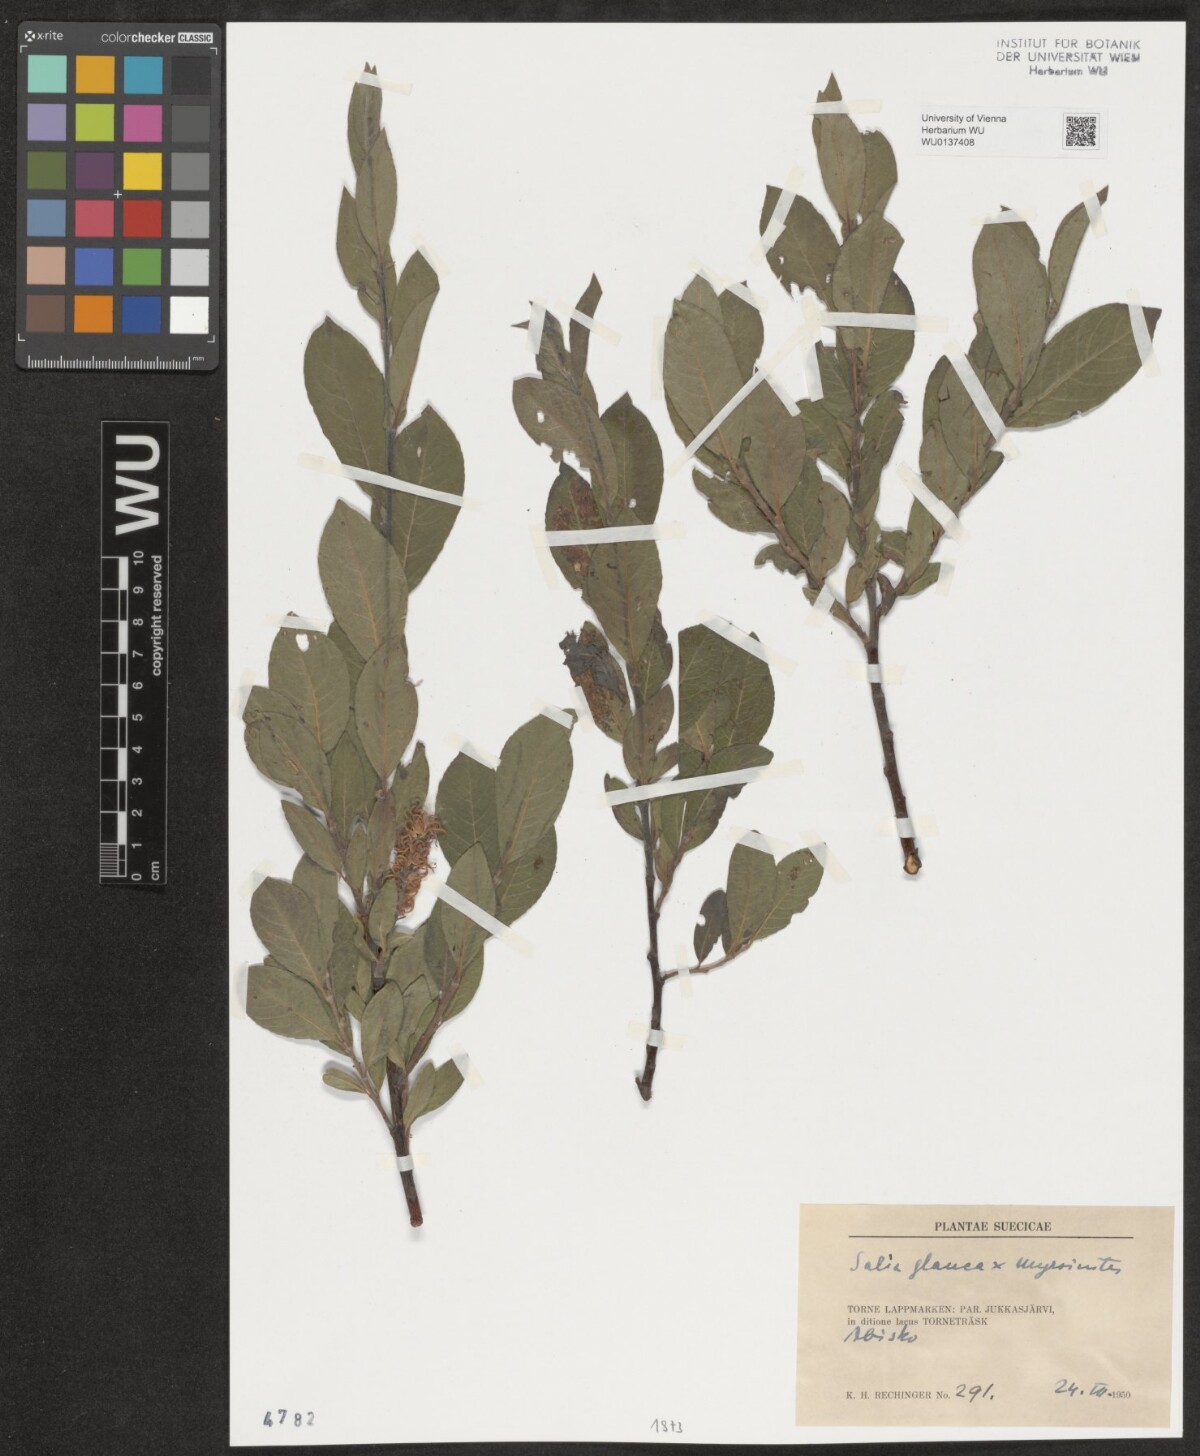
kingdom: Plantae
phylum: Tracheophyta
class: Magnoliopsida
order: Malpighiales
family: Salicaceae
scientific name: Salicaceae
